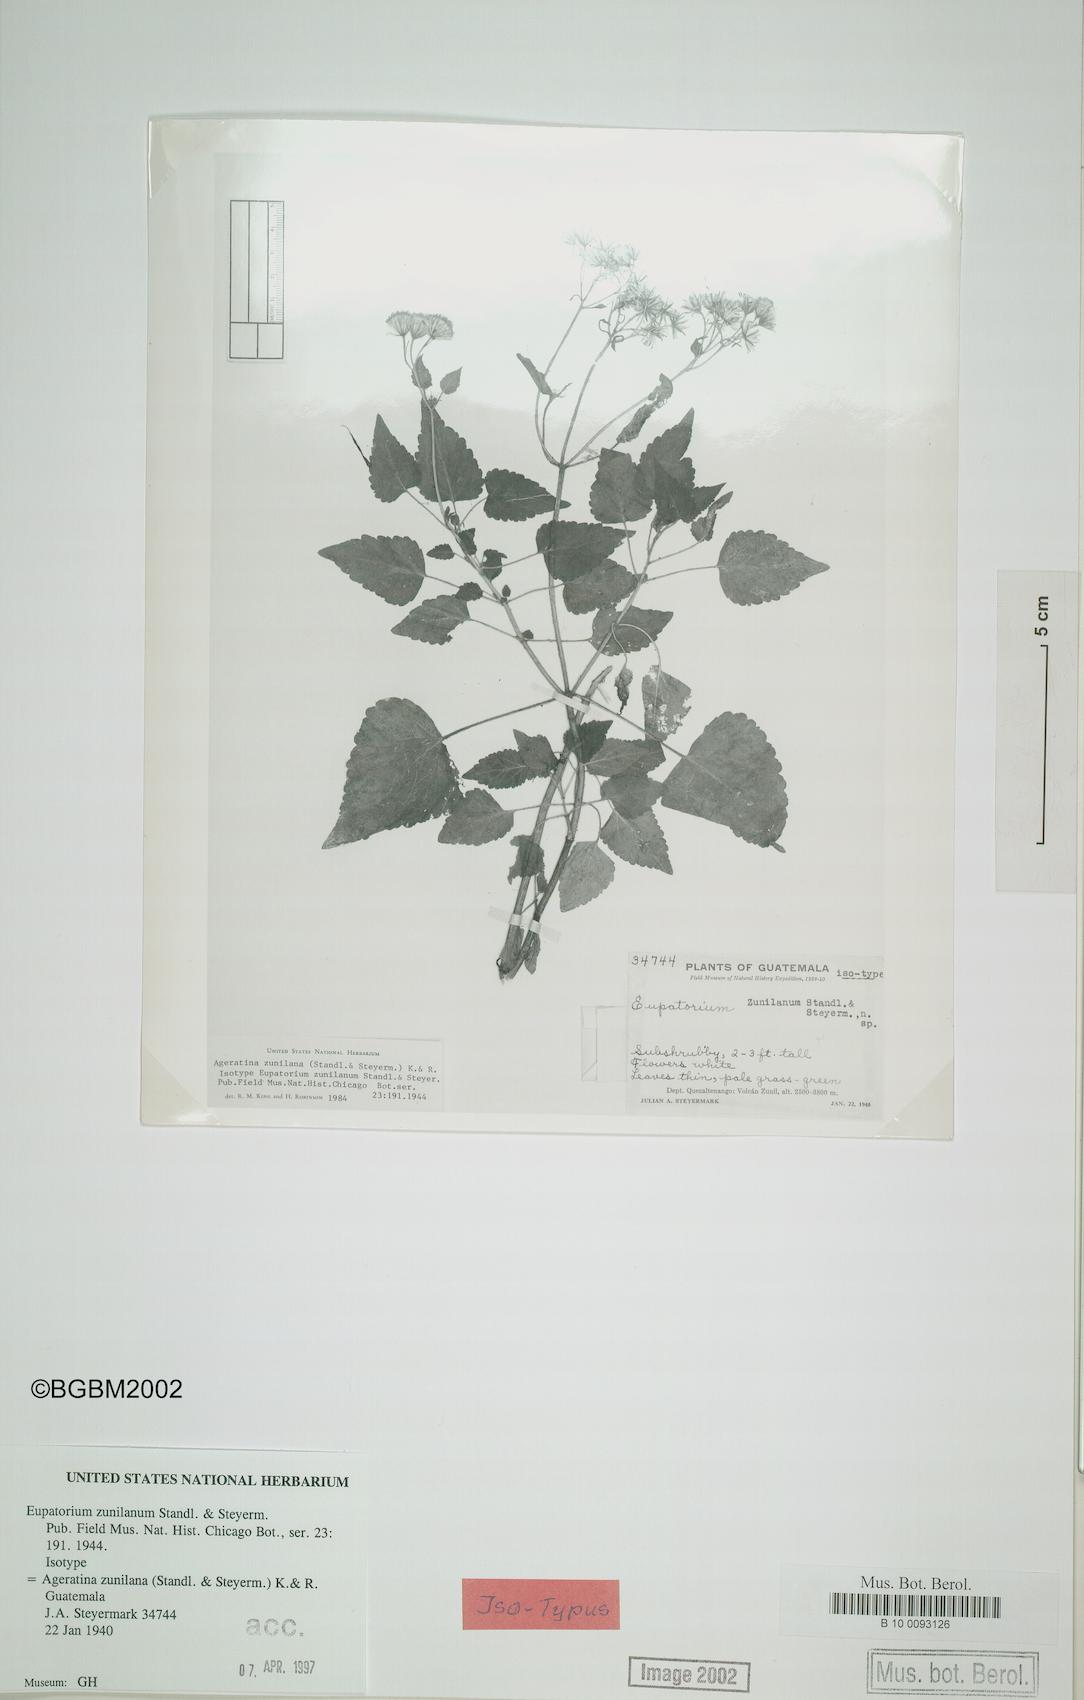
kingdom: Plantae
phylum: Tracheophyta
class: Magnoliopsida
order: Asterales
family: Asteraceae
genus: Ageratina
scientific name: Ageratina zunilana
